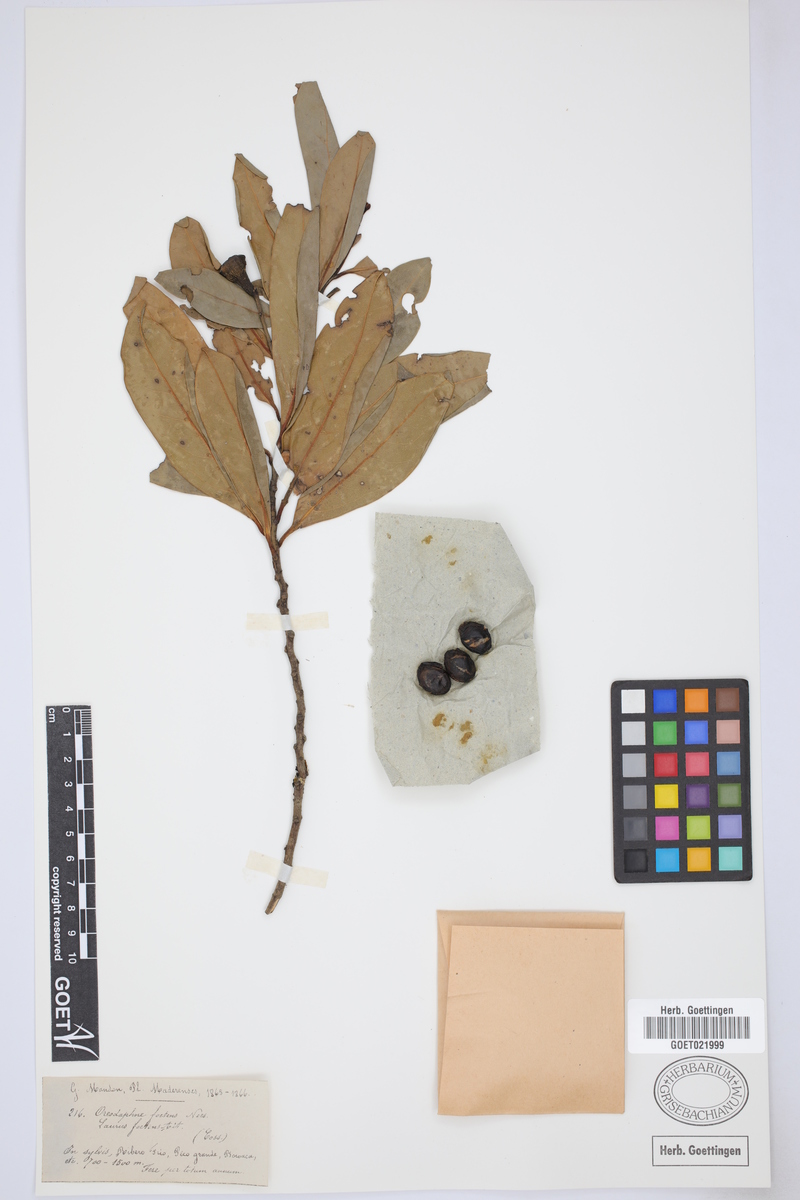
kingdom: Plantae
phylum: Tracheophyta
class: Magnoliopsida
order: Laurales
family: Lauraceae
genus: Mespilodaphne
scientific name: Mespilodaphne foetens
